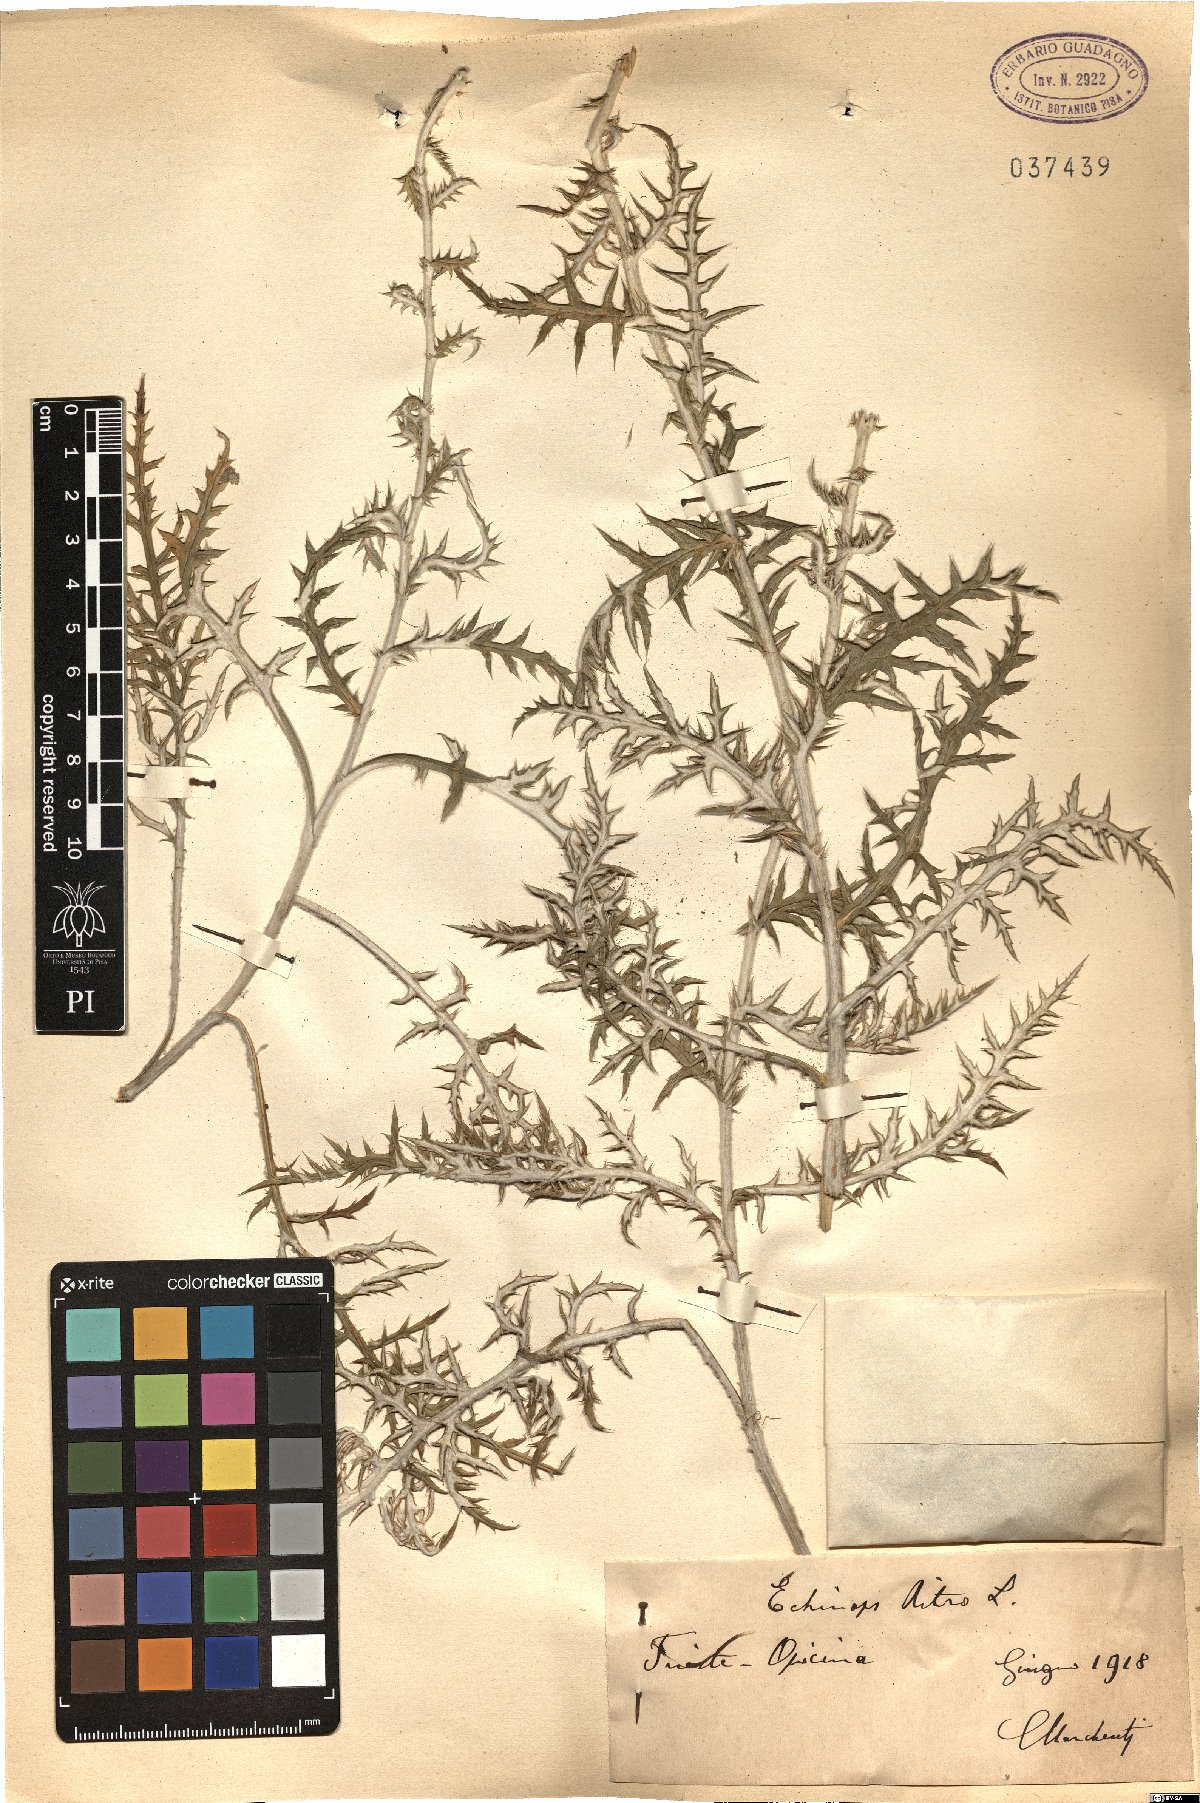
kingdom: Plantae
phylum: Tracheophyta
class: Magnoliopsida
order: Asterales
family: Asteraceae
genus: Echinops
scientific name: Echinops ritro
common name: Globe thistle
